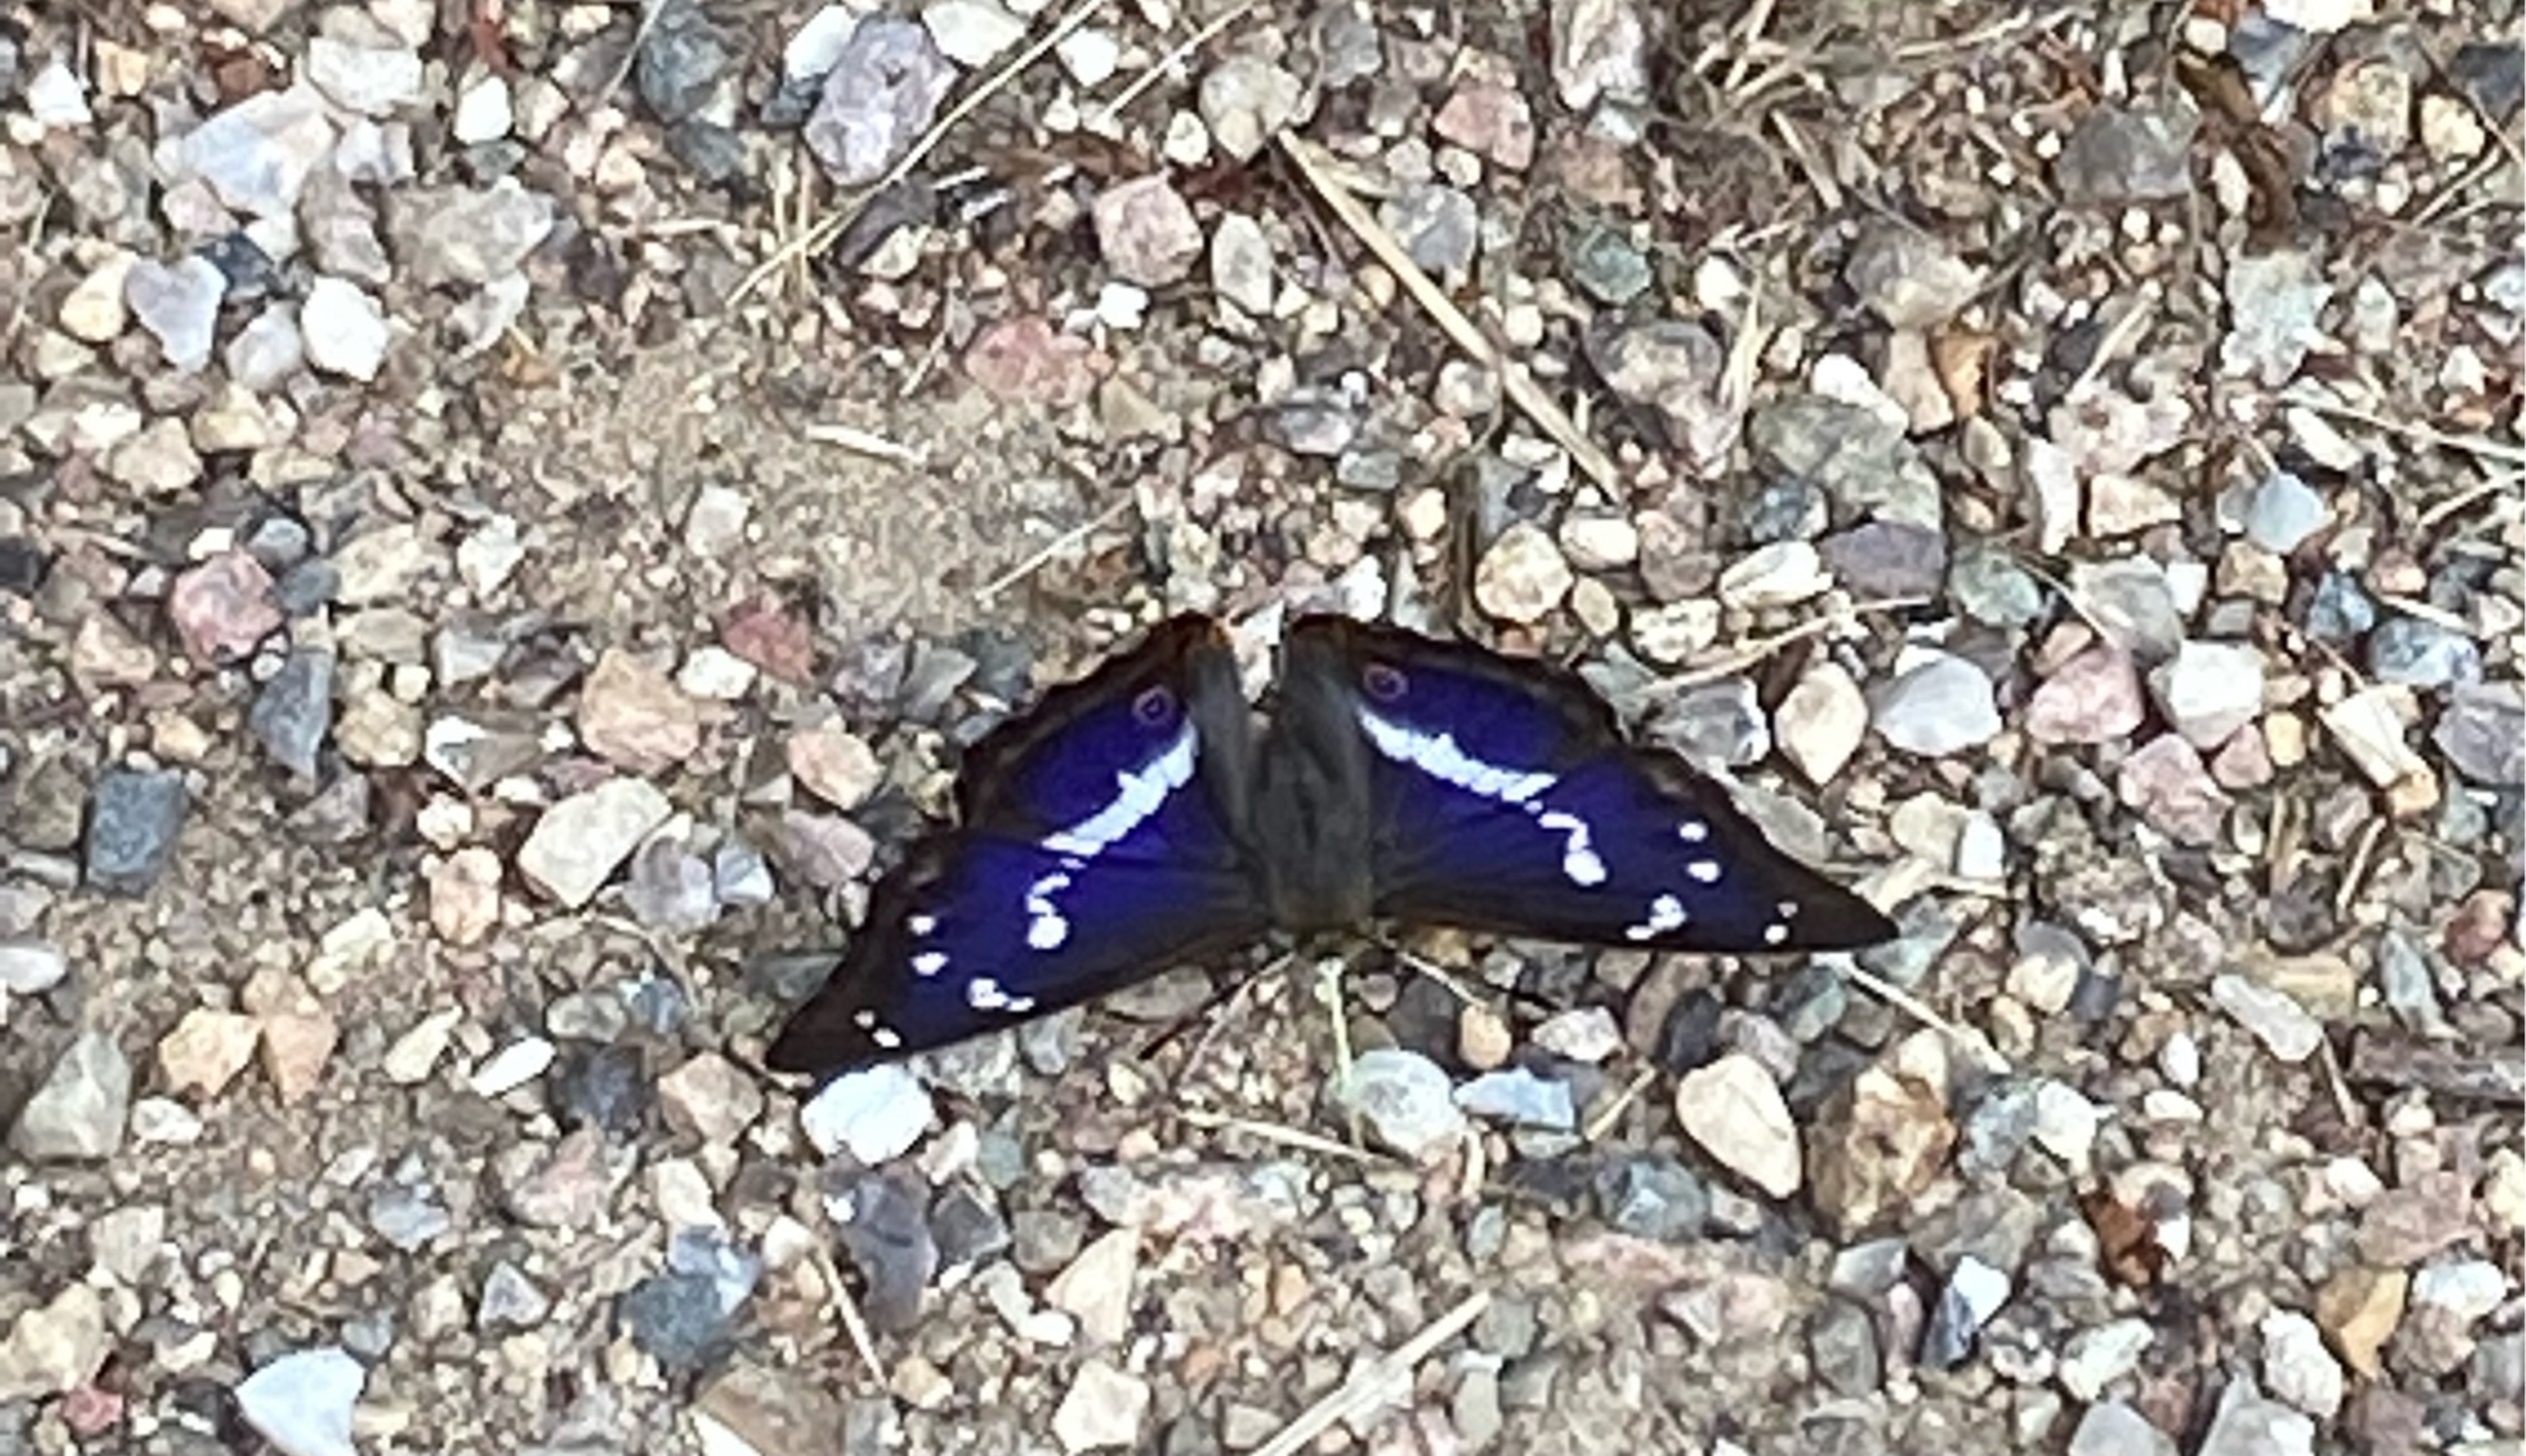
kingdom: Animalia
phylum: Arthropoda
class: Insecta
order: Lepidoptera
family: Nymphalidae
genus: Apatura
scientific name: Apatura iris
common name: Iris
